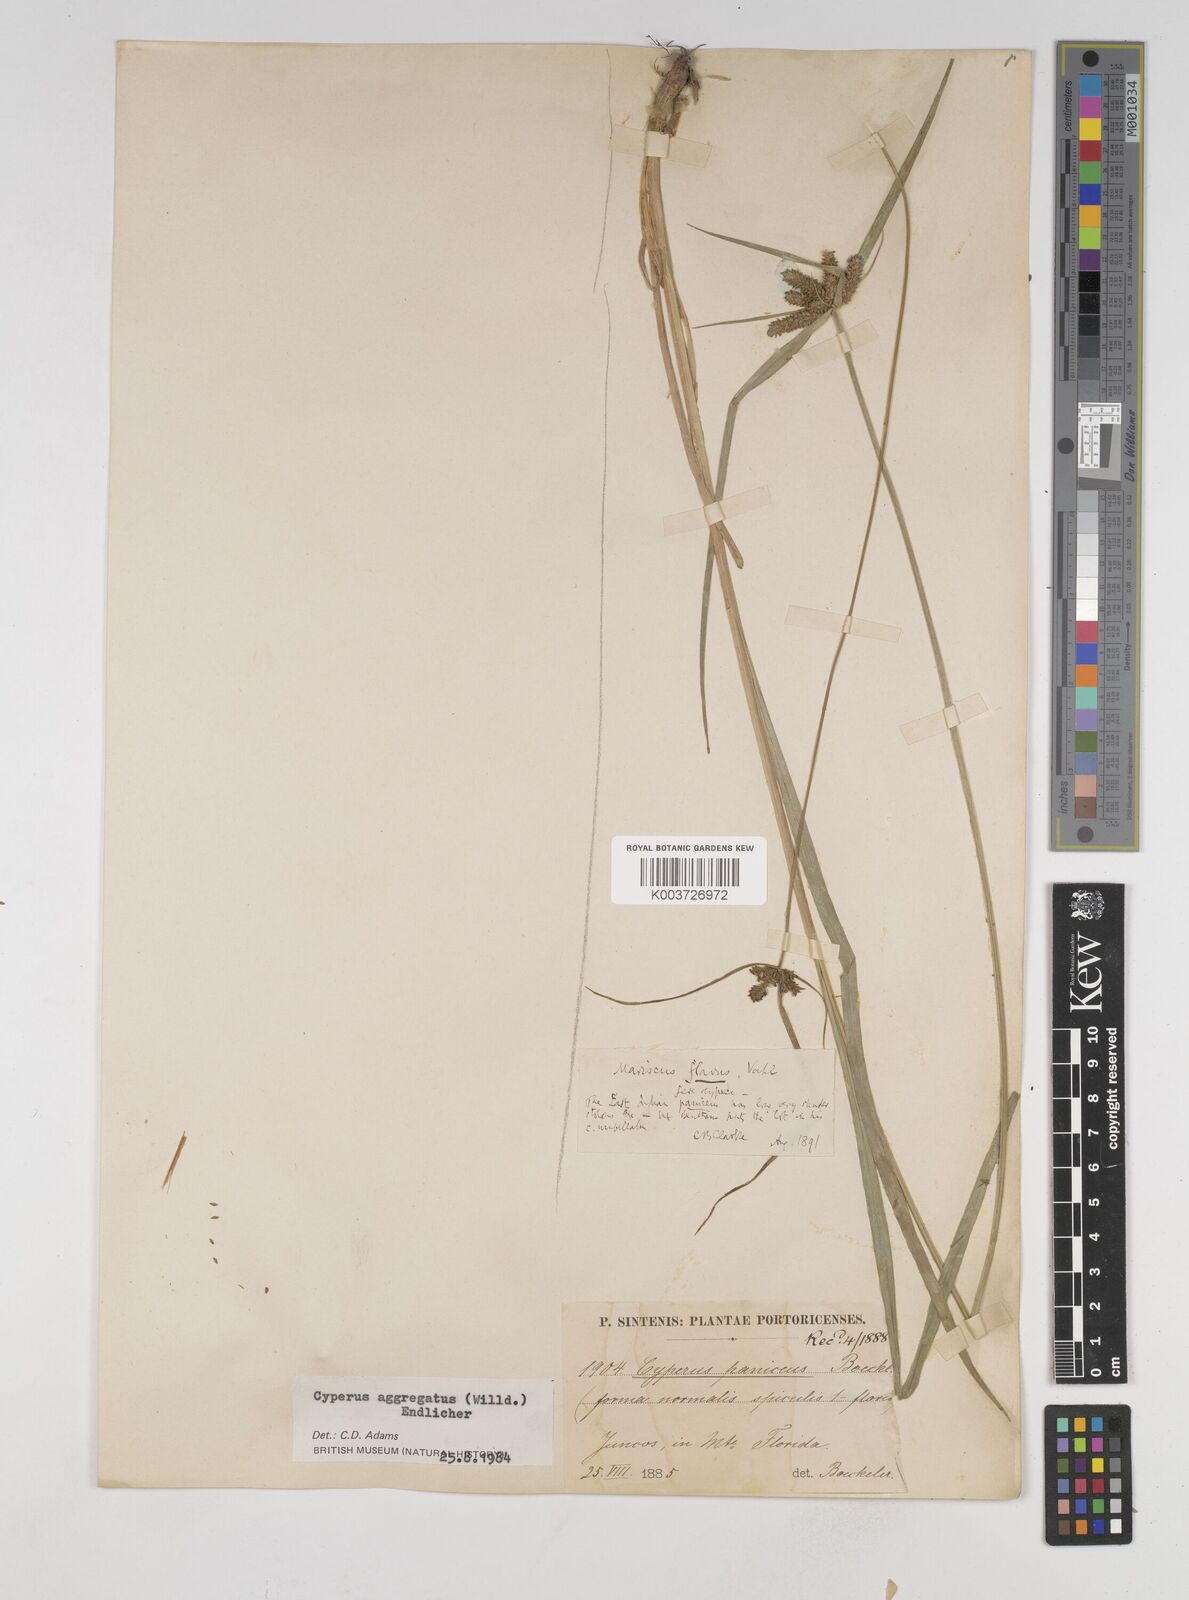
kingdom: Plantae
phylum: Tracheophyta
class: Liliopsida
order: Poales
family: Cyperaceae
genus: Cyperus
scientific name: Cyperus aggregatus
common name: Inflatedscale flatsedge
